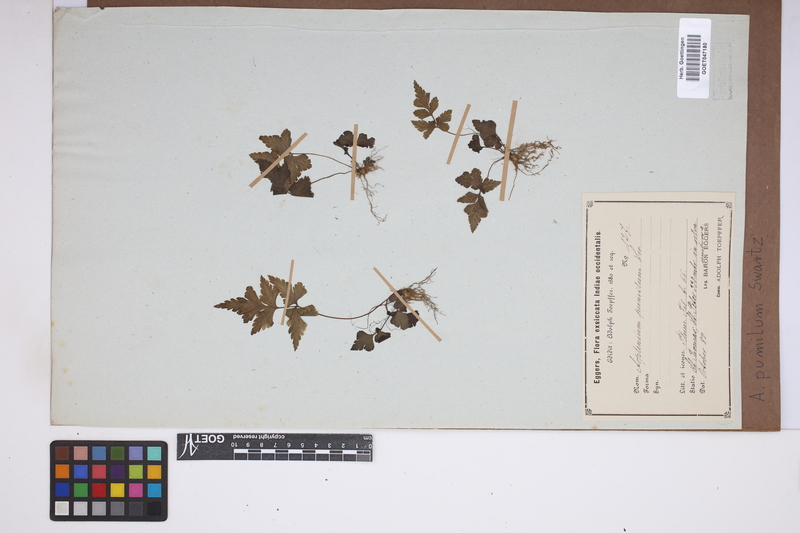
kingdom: Plantae
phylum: Tracheophyta
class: Polypodiopsida
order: Polypodiales
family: Aspleniaceae
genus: Asplenium
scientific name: Asplenium pumilum
